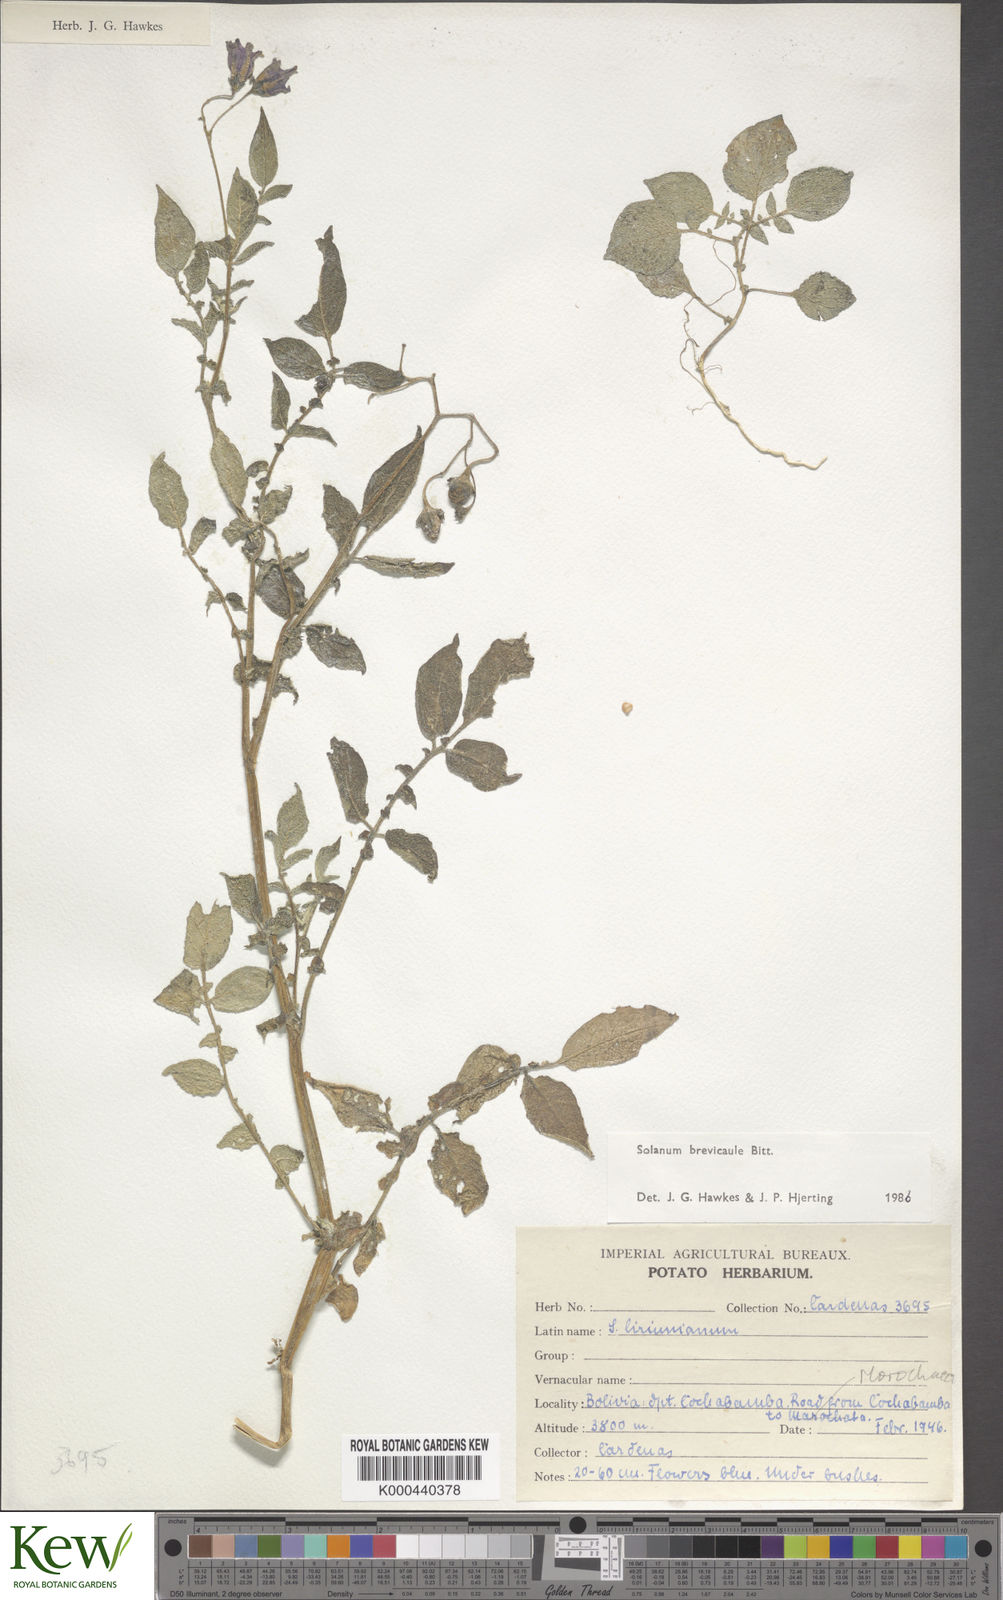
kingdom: Plantae
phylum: Tracheophyta
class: Magnoliopsida
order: Solanales
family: Solanaceae
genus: Solanum
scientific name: Solanum brevicaule
